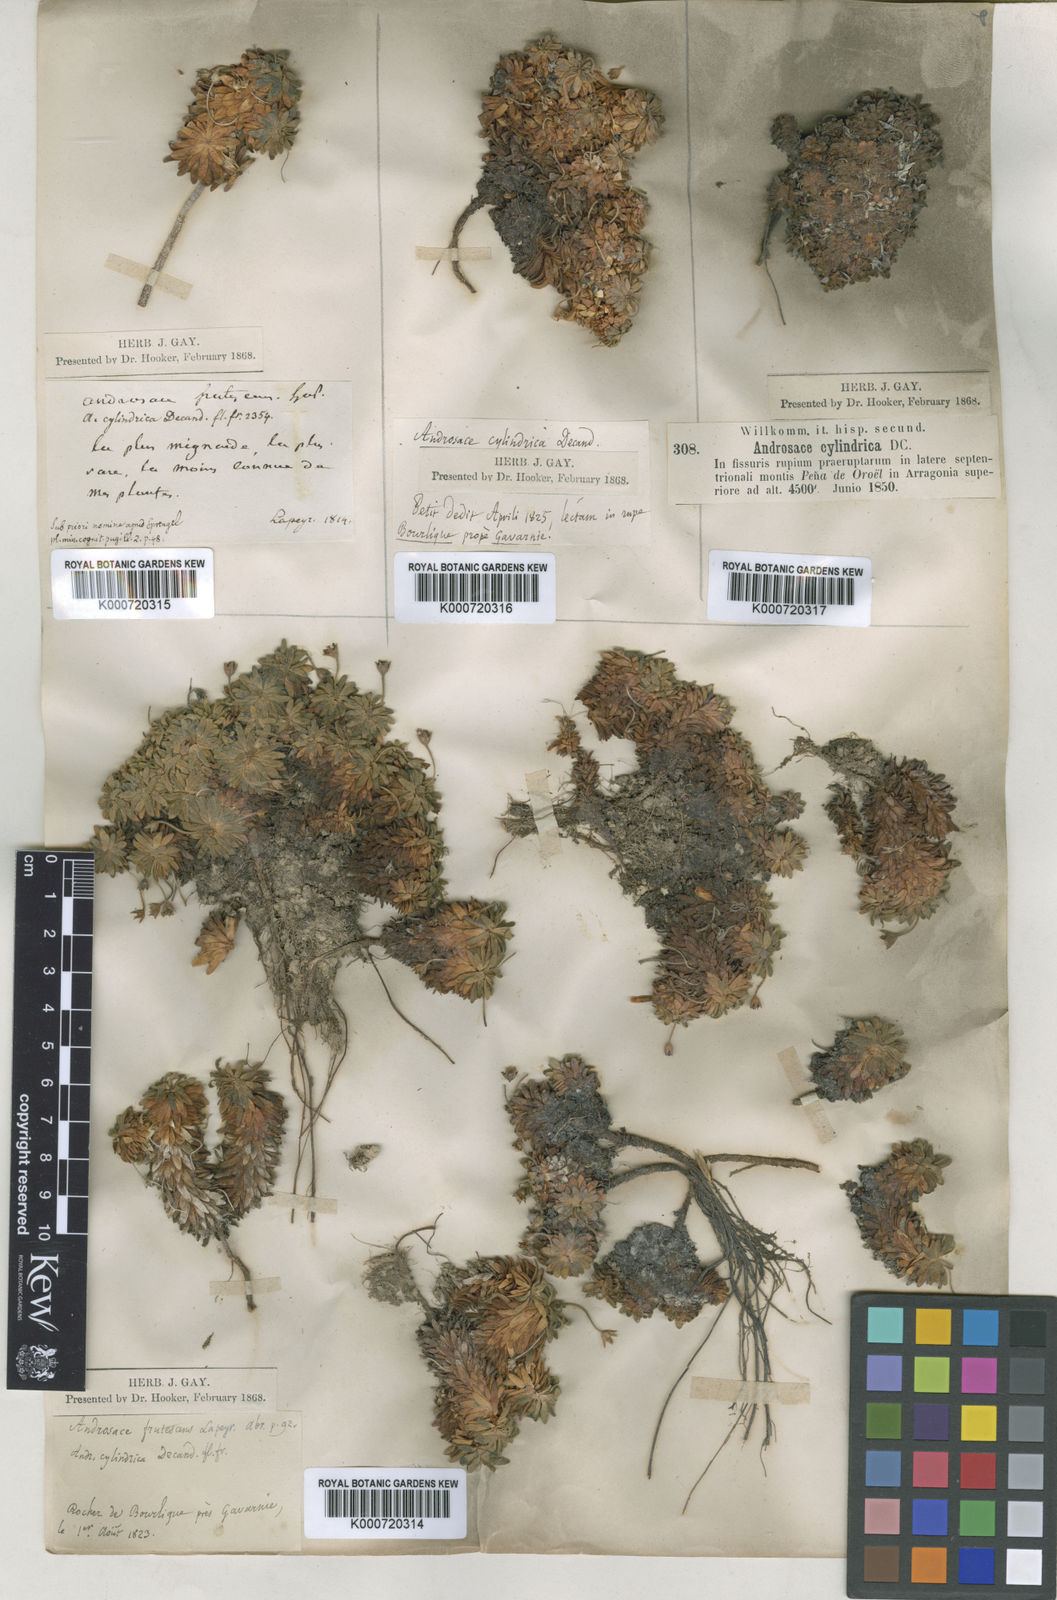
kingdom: Plantae
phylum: Tracheophyta
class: Magnoliopsida
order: Ericales
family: Primulaceae
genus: Androsace
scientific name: Androsace cylindrica
